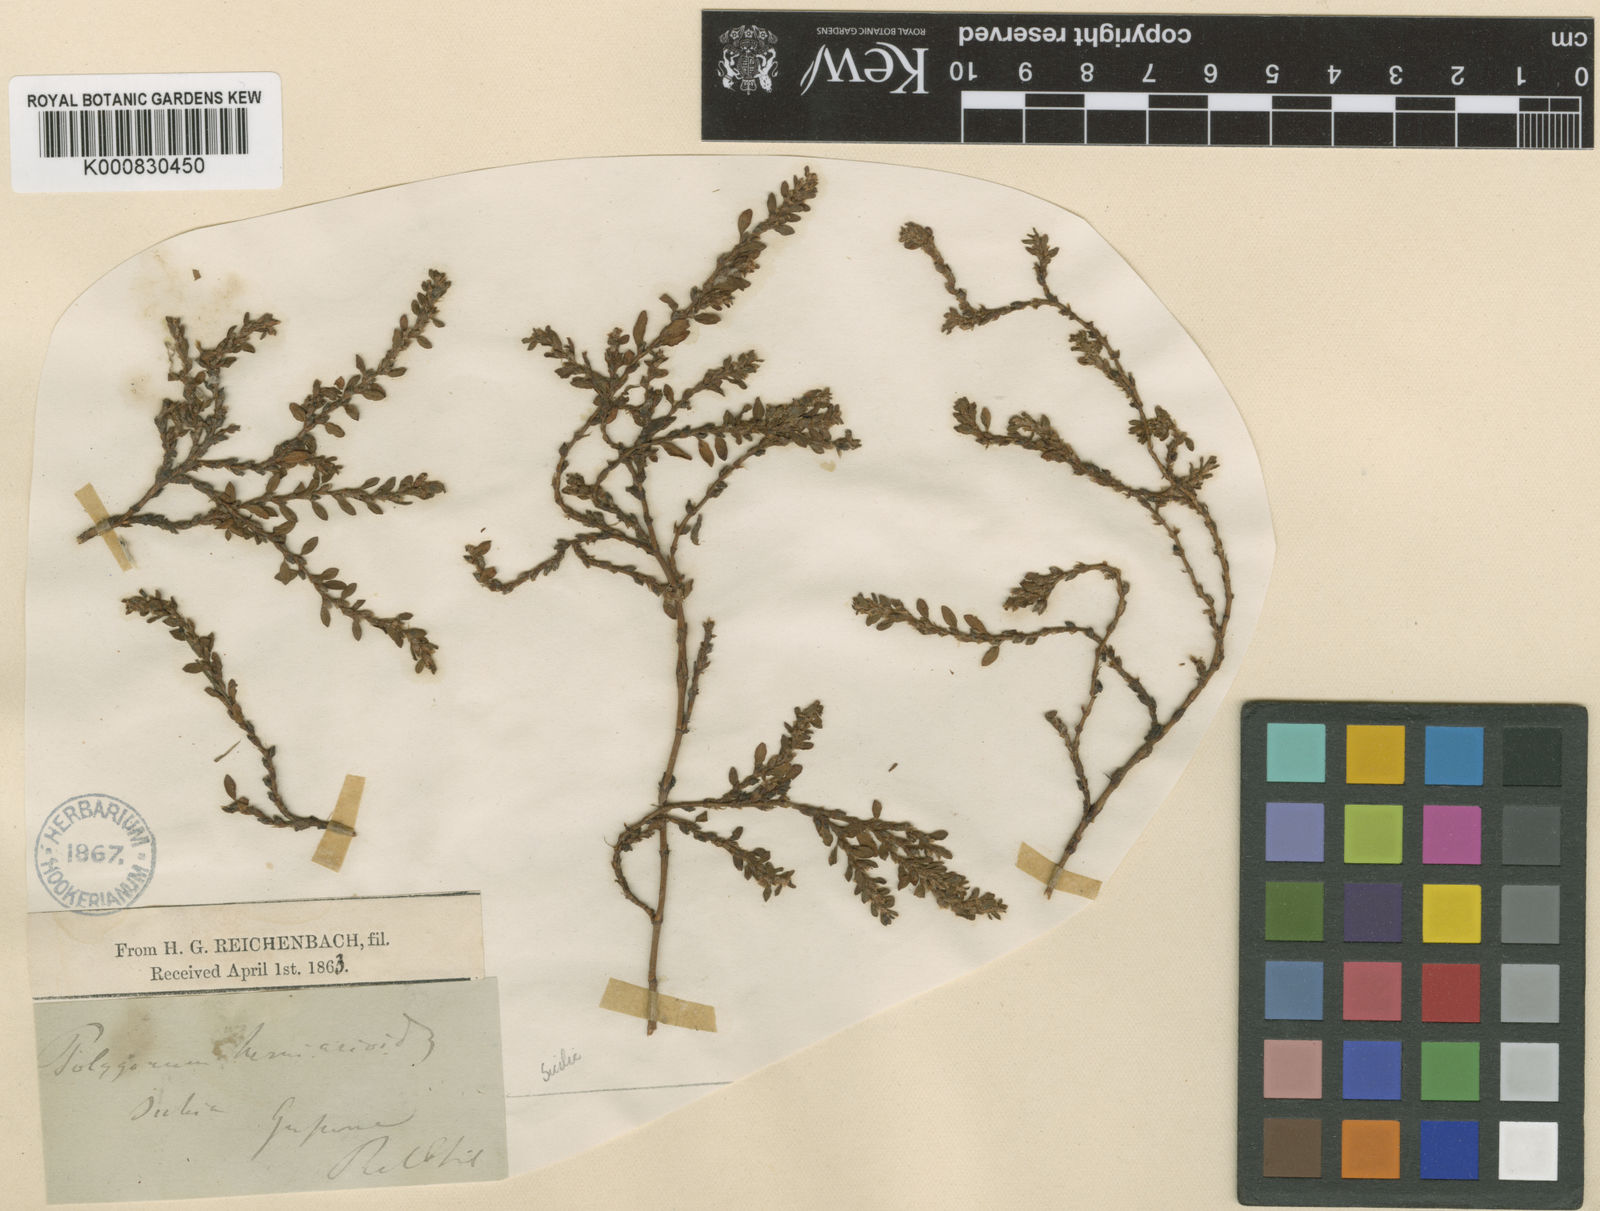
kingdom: Plantae
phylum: Tracheophyta
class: Magnoliopsida
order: Caryophyllales
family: Polygonaceae
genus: Polygonum
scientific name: Polygonum arenastrum
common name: Equal-leaved knotgrass
